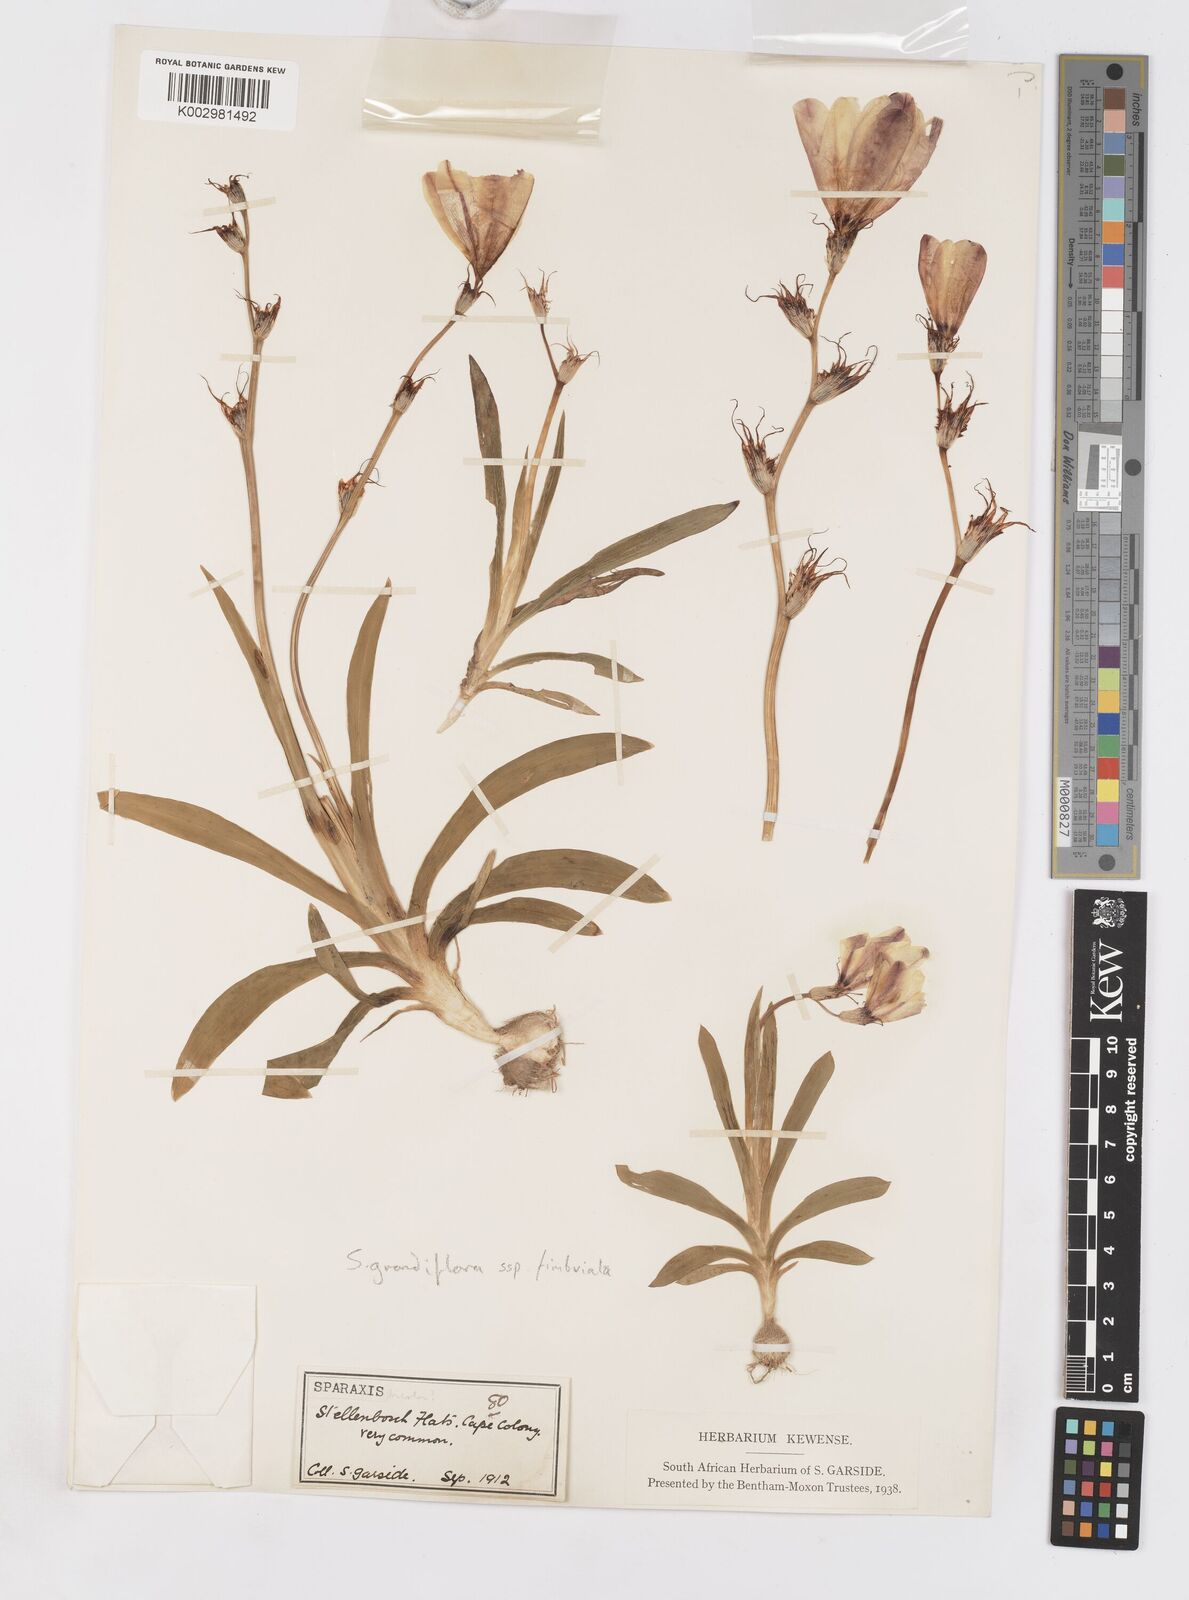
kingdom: Plantae
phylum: Tracheophyta
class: Liliopsida
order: Asparagales
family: Iridaceae
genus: Sparaxis
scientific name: Sparaxis grandiflora
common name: Plain harlequin-flower
